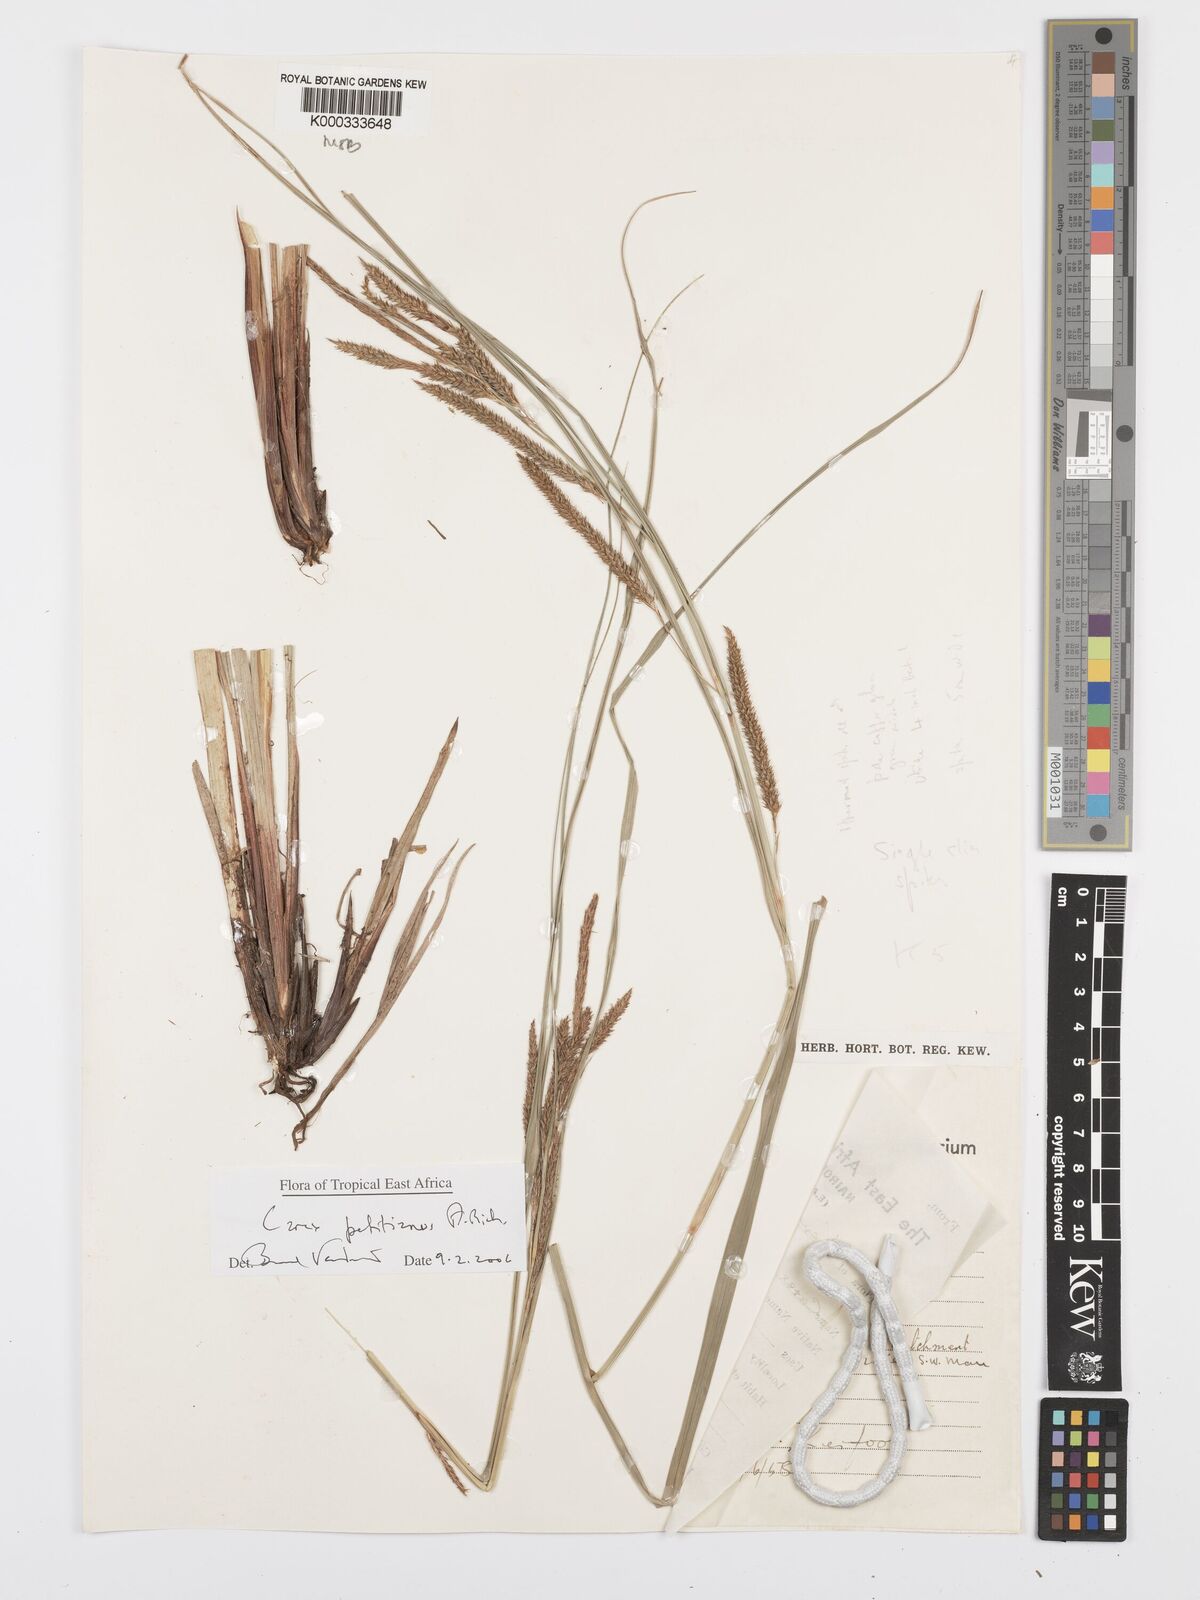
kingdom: Plantae
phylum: Tracheophyta
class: Liliopsida
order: Poales
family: Cyperaceae
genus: Carex
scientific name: Carex petitiana
